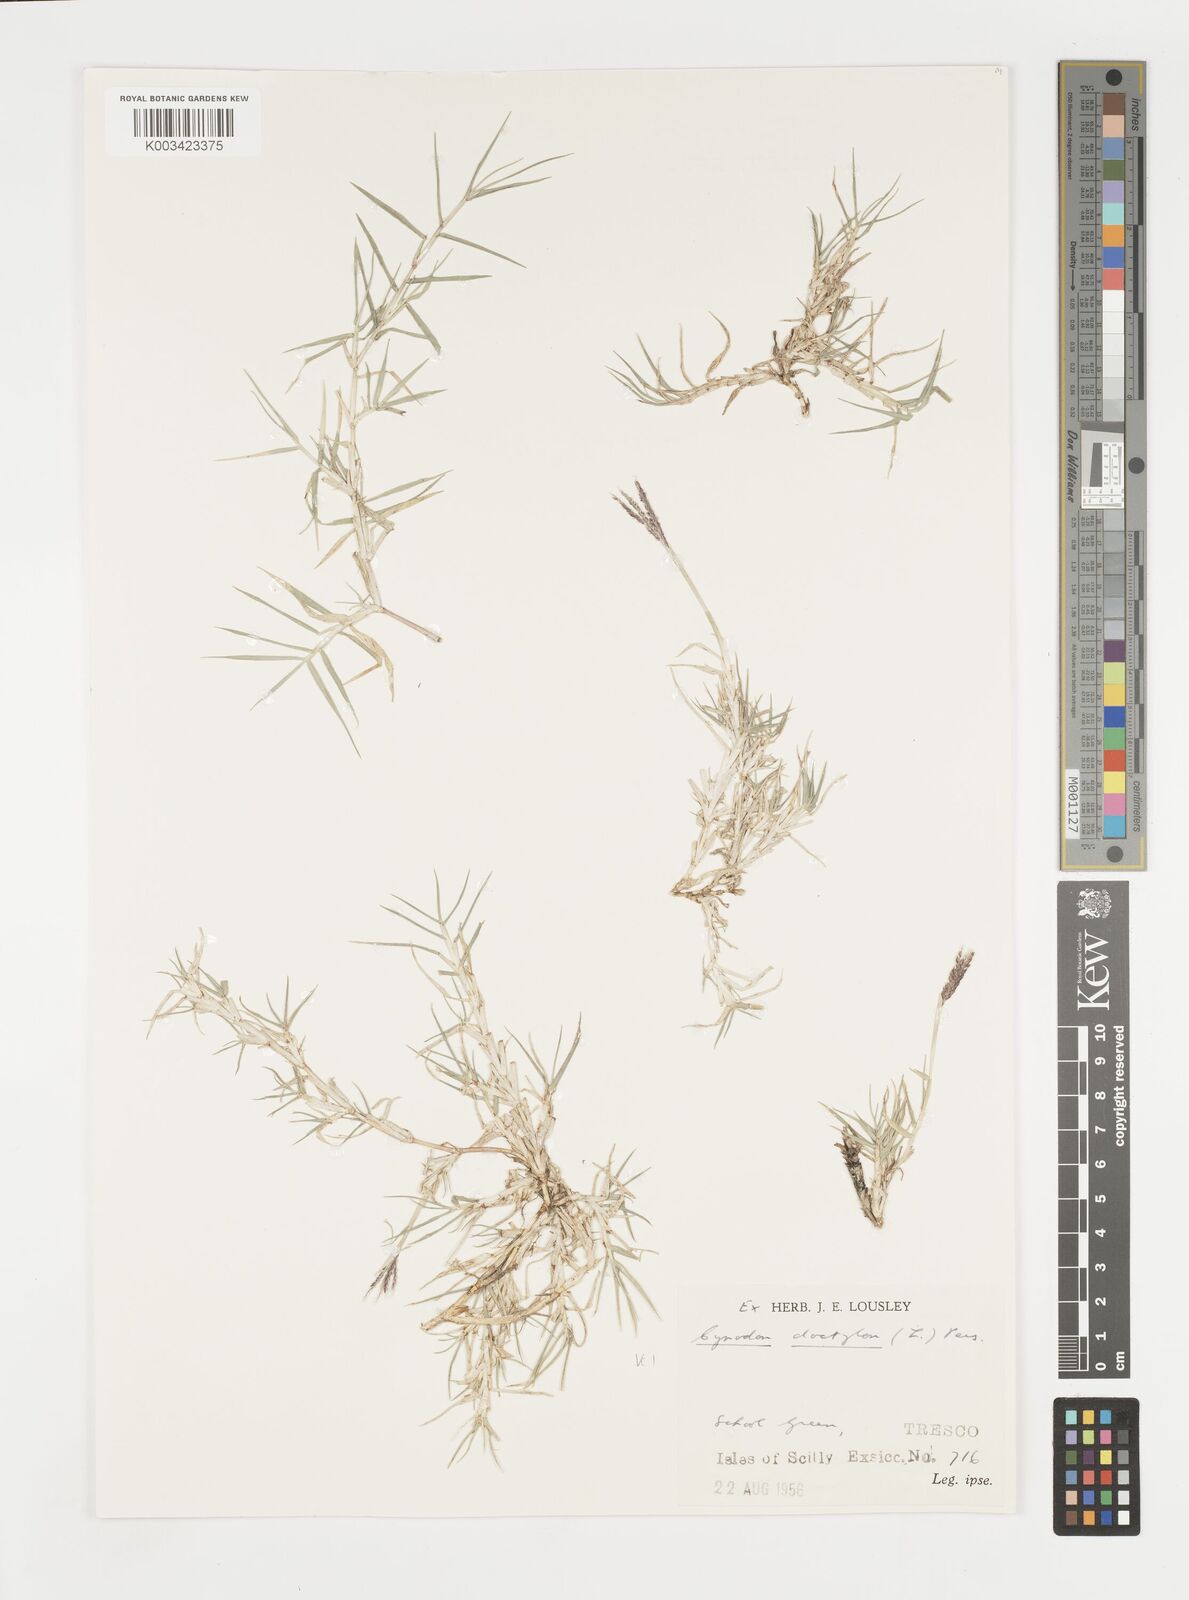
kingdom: Plantae
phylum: Tracheophyta
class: Liliopsida
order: Poales
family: Poaceae
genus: Cynodon
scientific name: Cynodon dactylon
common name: Bermuda grass
